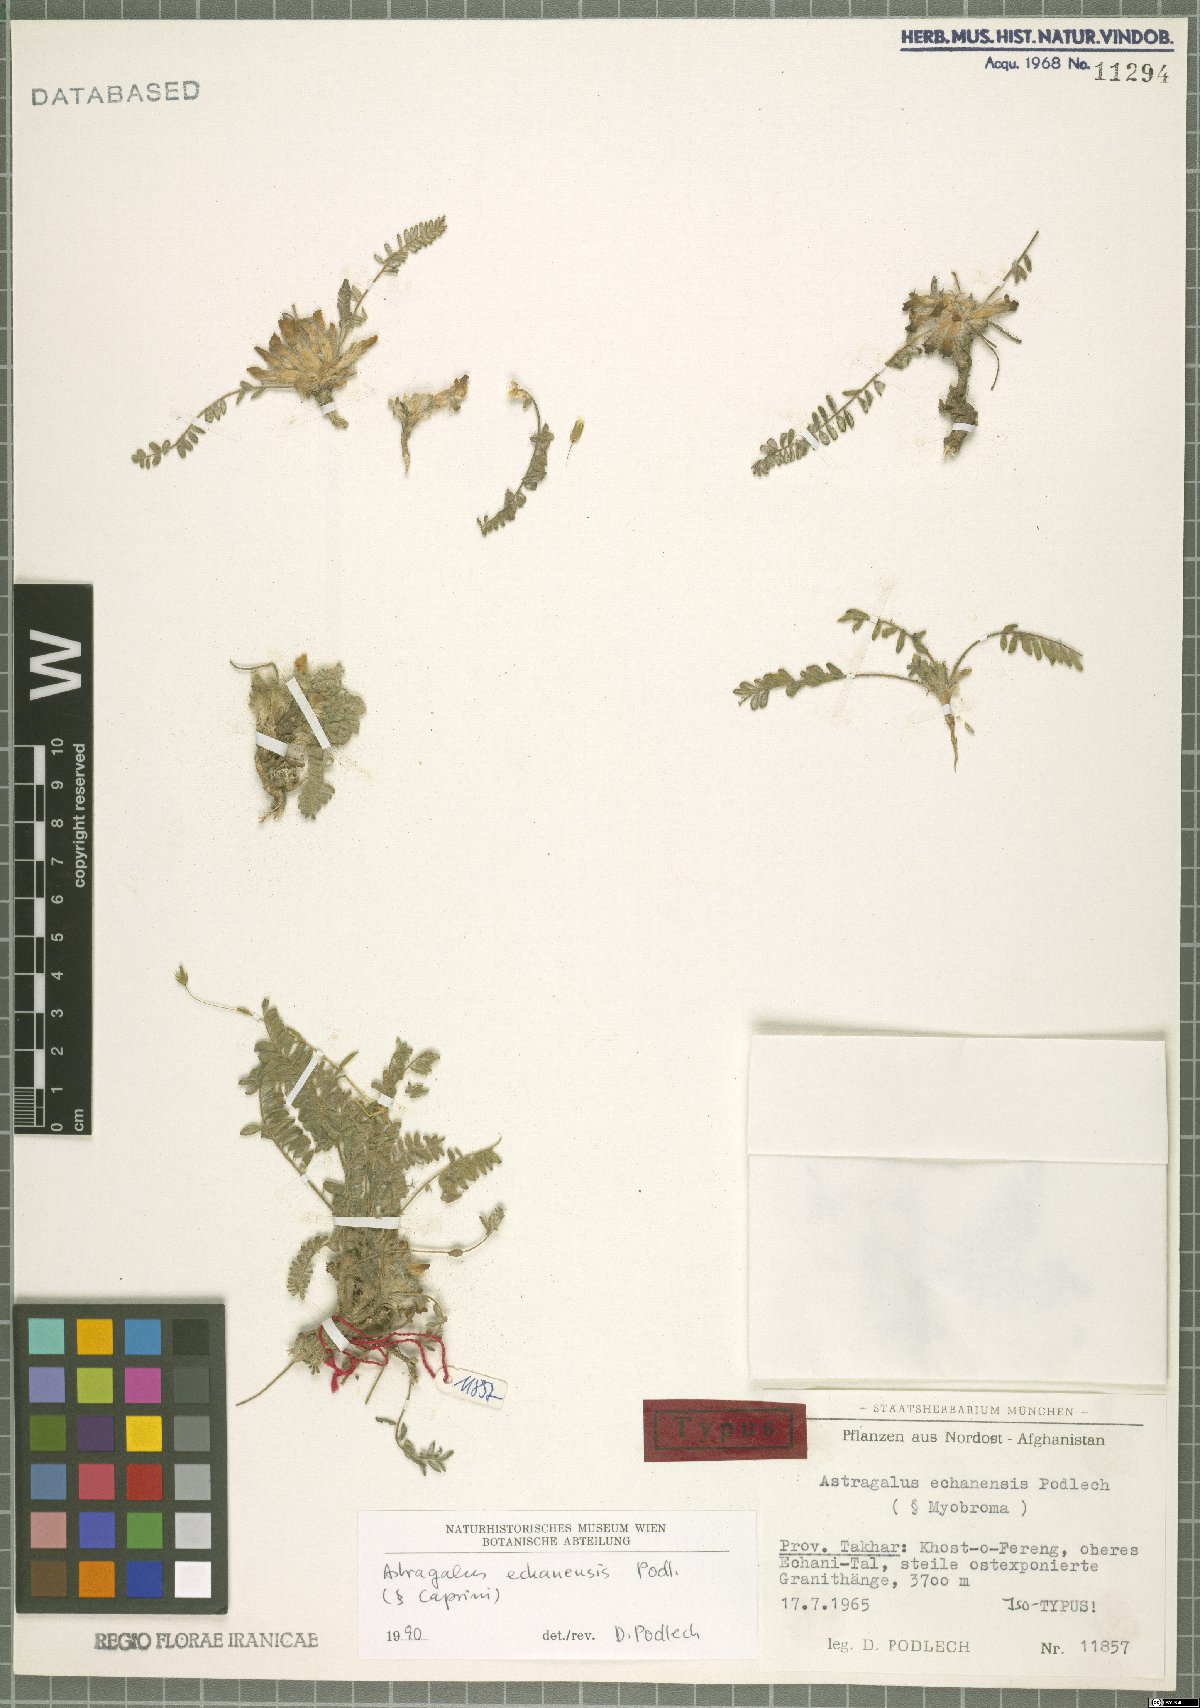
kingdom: Plantae
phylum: Tracheophyta
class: Magnoliopsida
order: Fabales
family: Fabaceae
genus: Astragalus
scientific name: Astragalus echanensis
